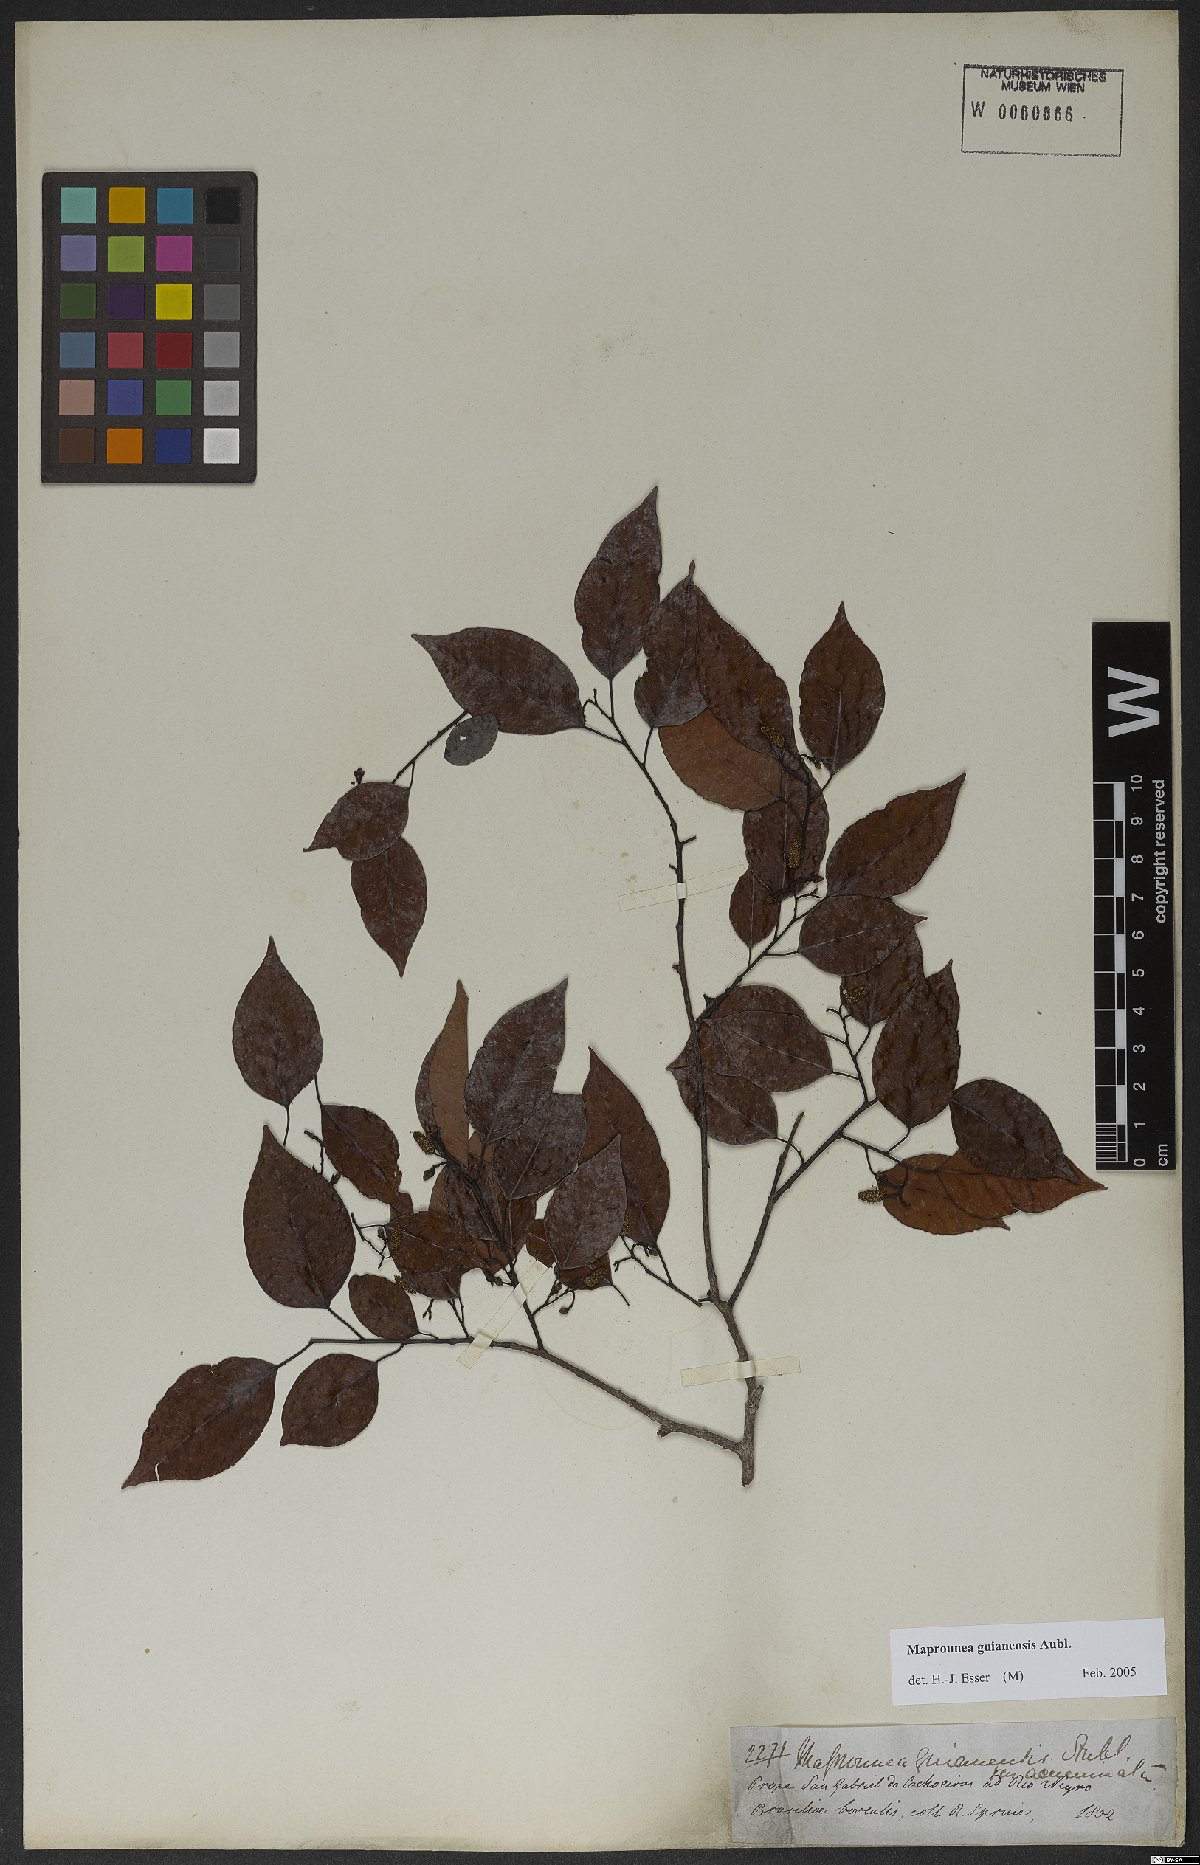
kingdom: Plantae
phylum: Tracheophyta
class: Magnoliopsida
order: Malpighiales
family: Euphorbiaceae
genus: Maprounea
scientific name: Maprounea guianensis
